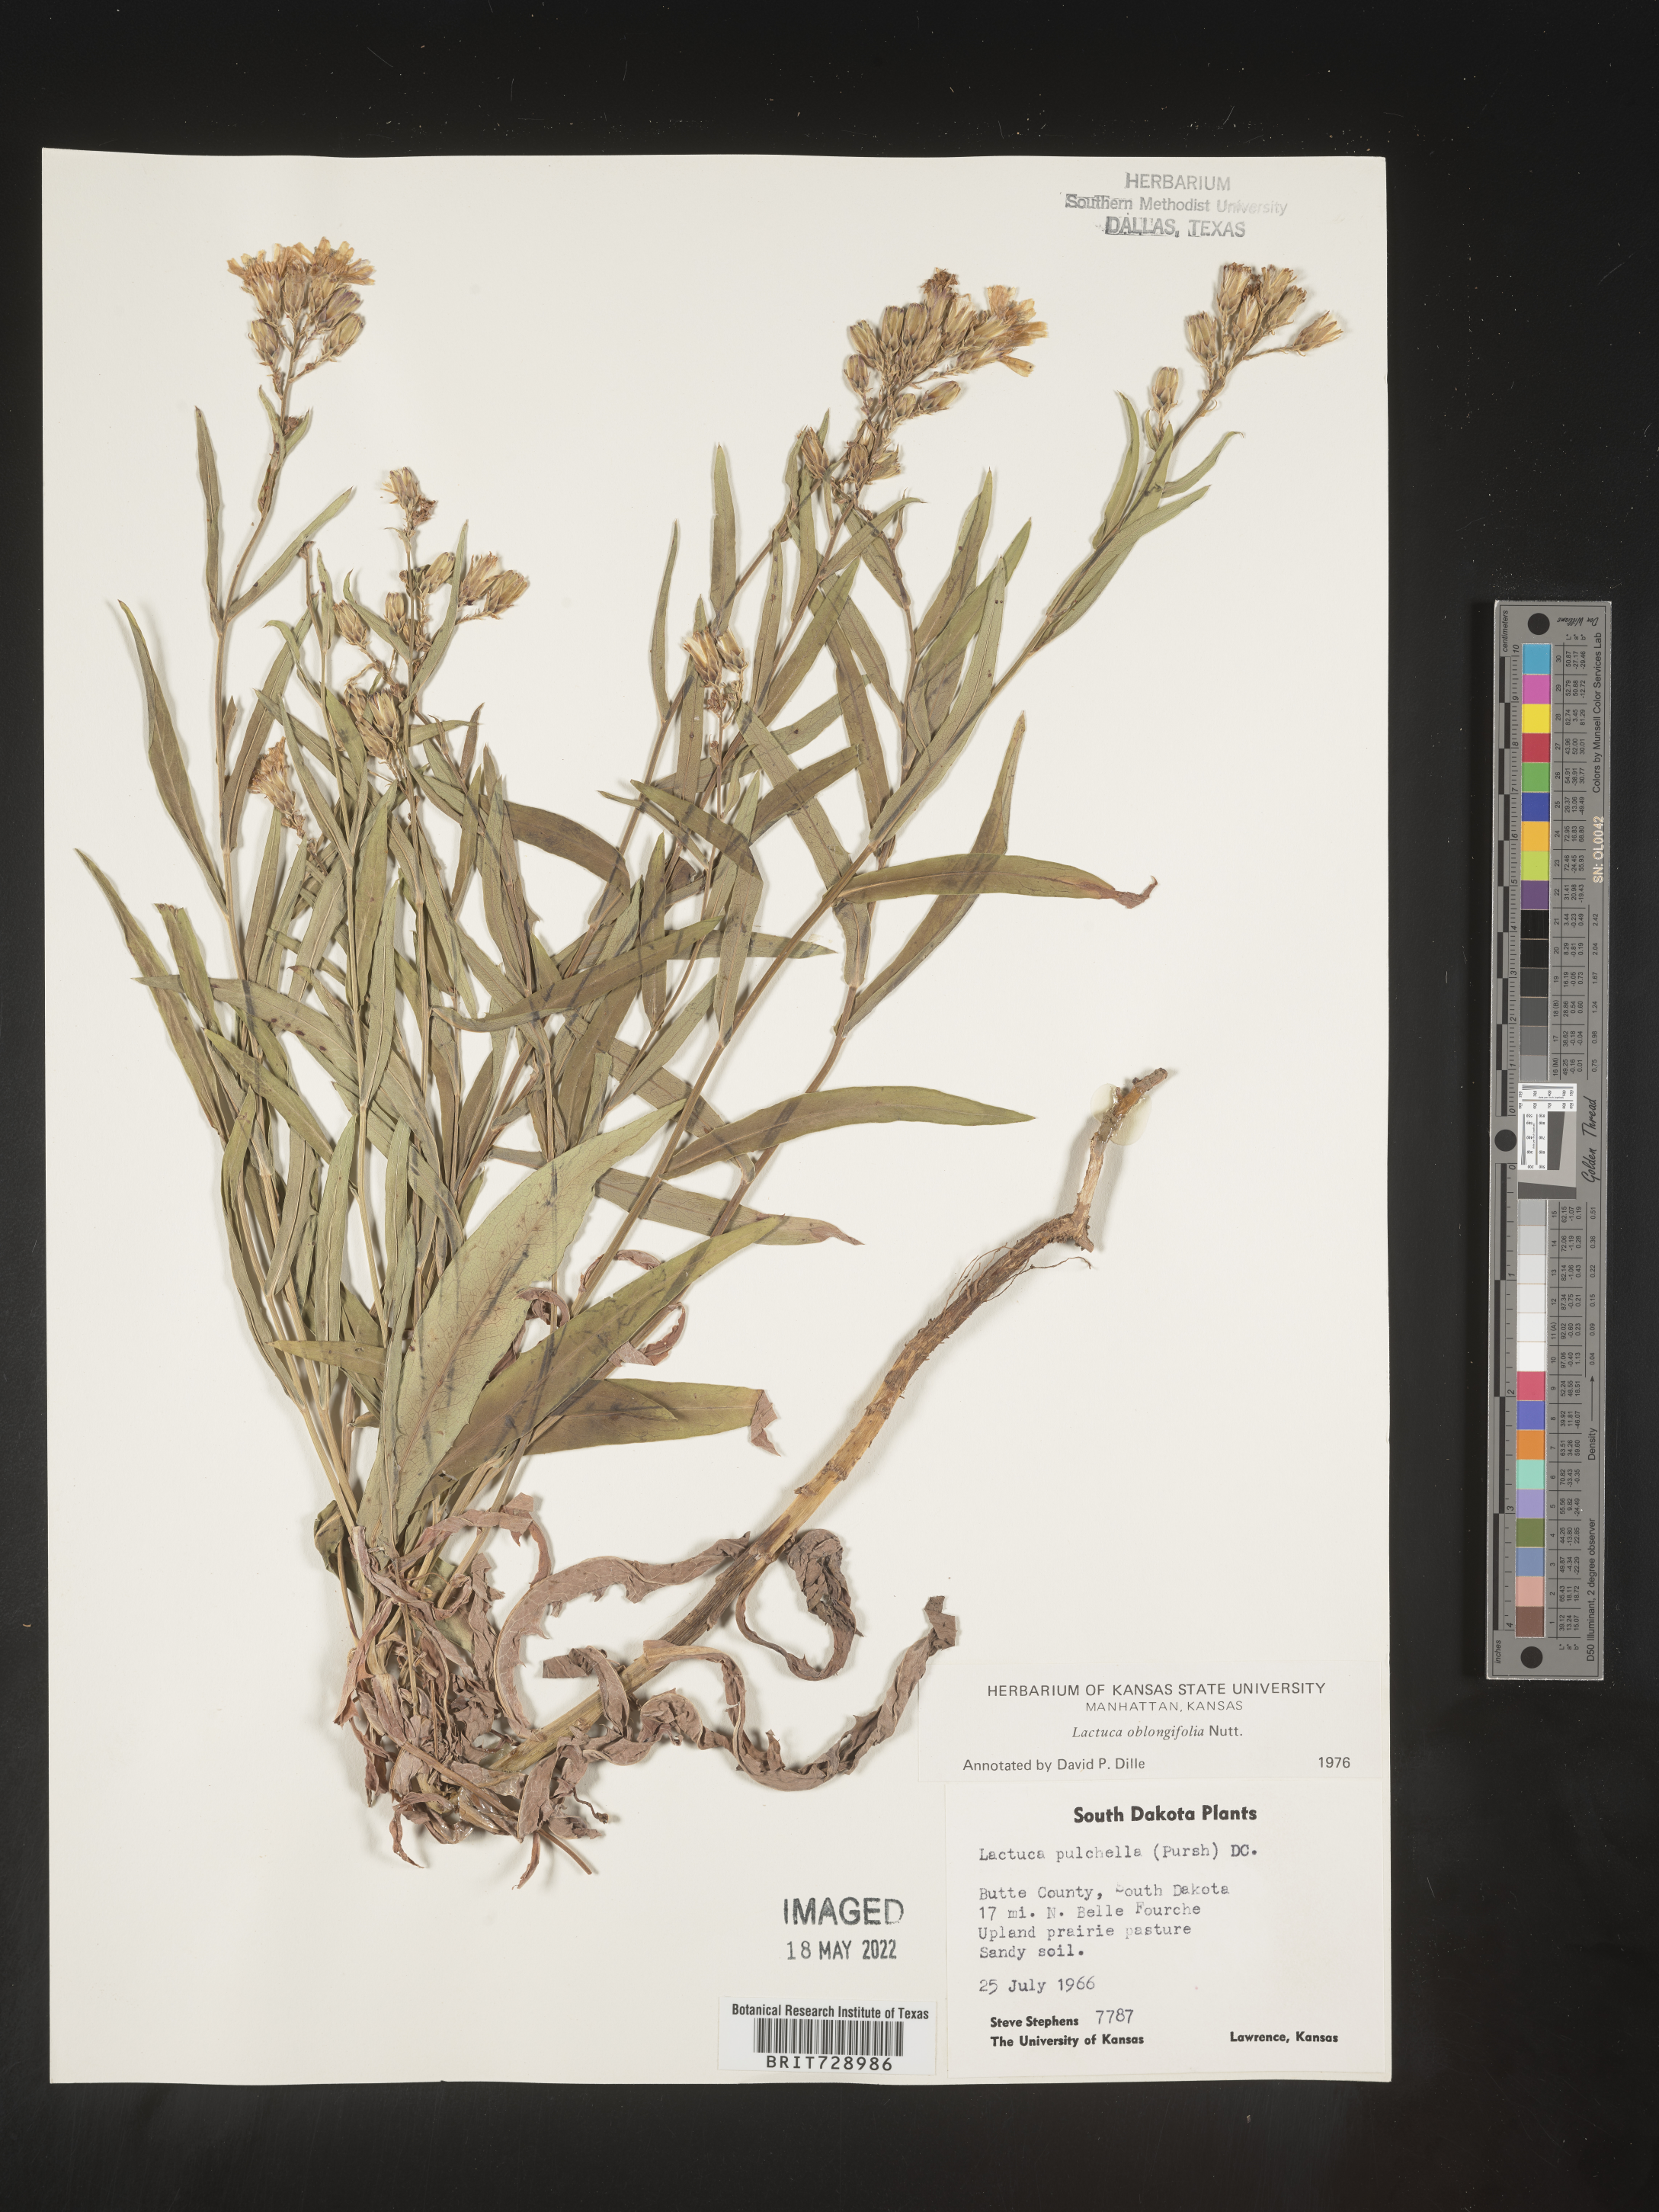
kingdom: Plantae
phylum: Tracheophyta
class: Magnoliopsida
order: Asterales
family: Asteraceae
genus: Lactuca
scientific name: Lactuca pulchella
